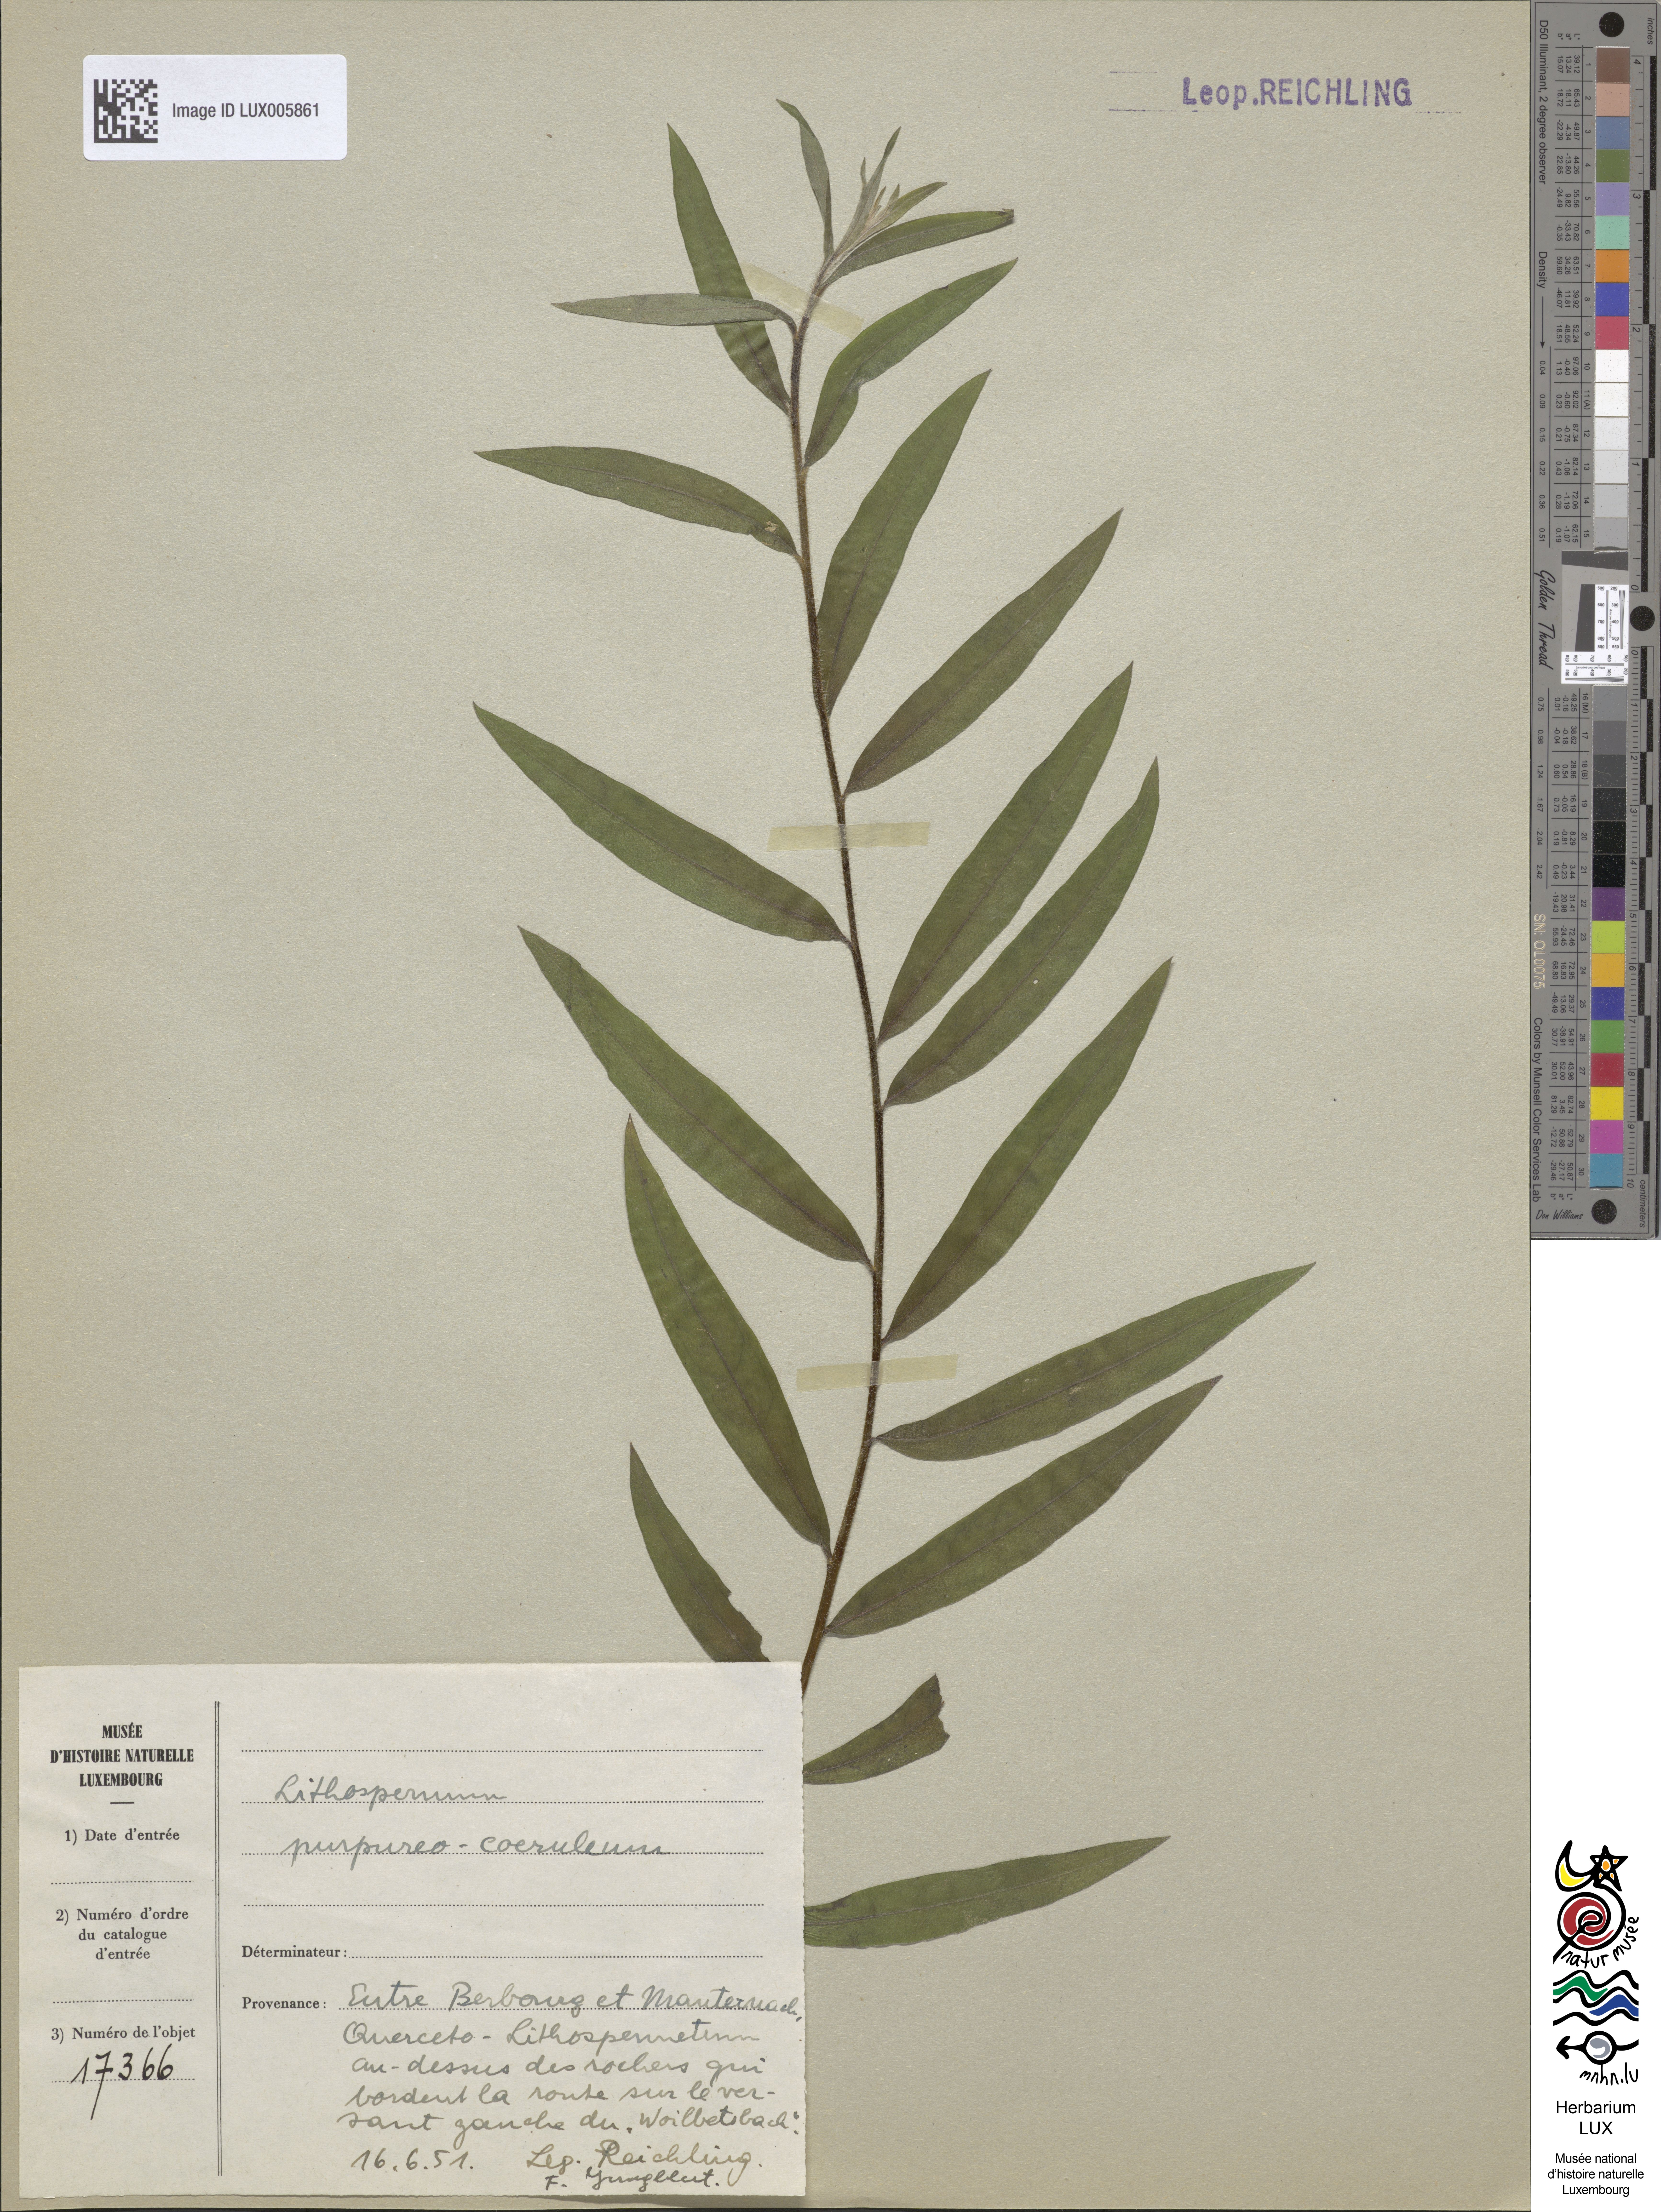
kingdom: Plantae
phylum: Tracheophyta
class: Magnoliopsida
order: Boraginales
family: Boraginaceae
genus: Aegonychon
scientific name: Aegonychon purpurocaeruleum
